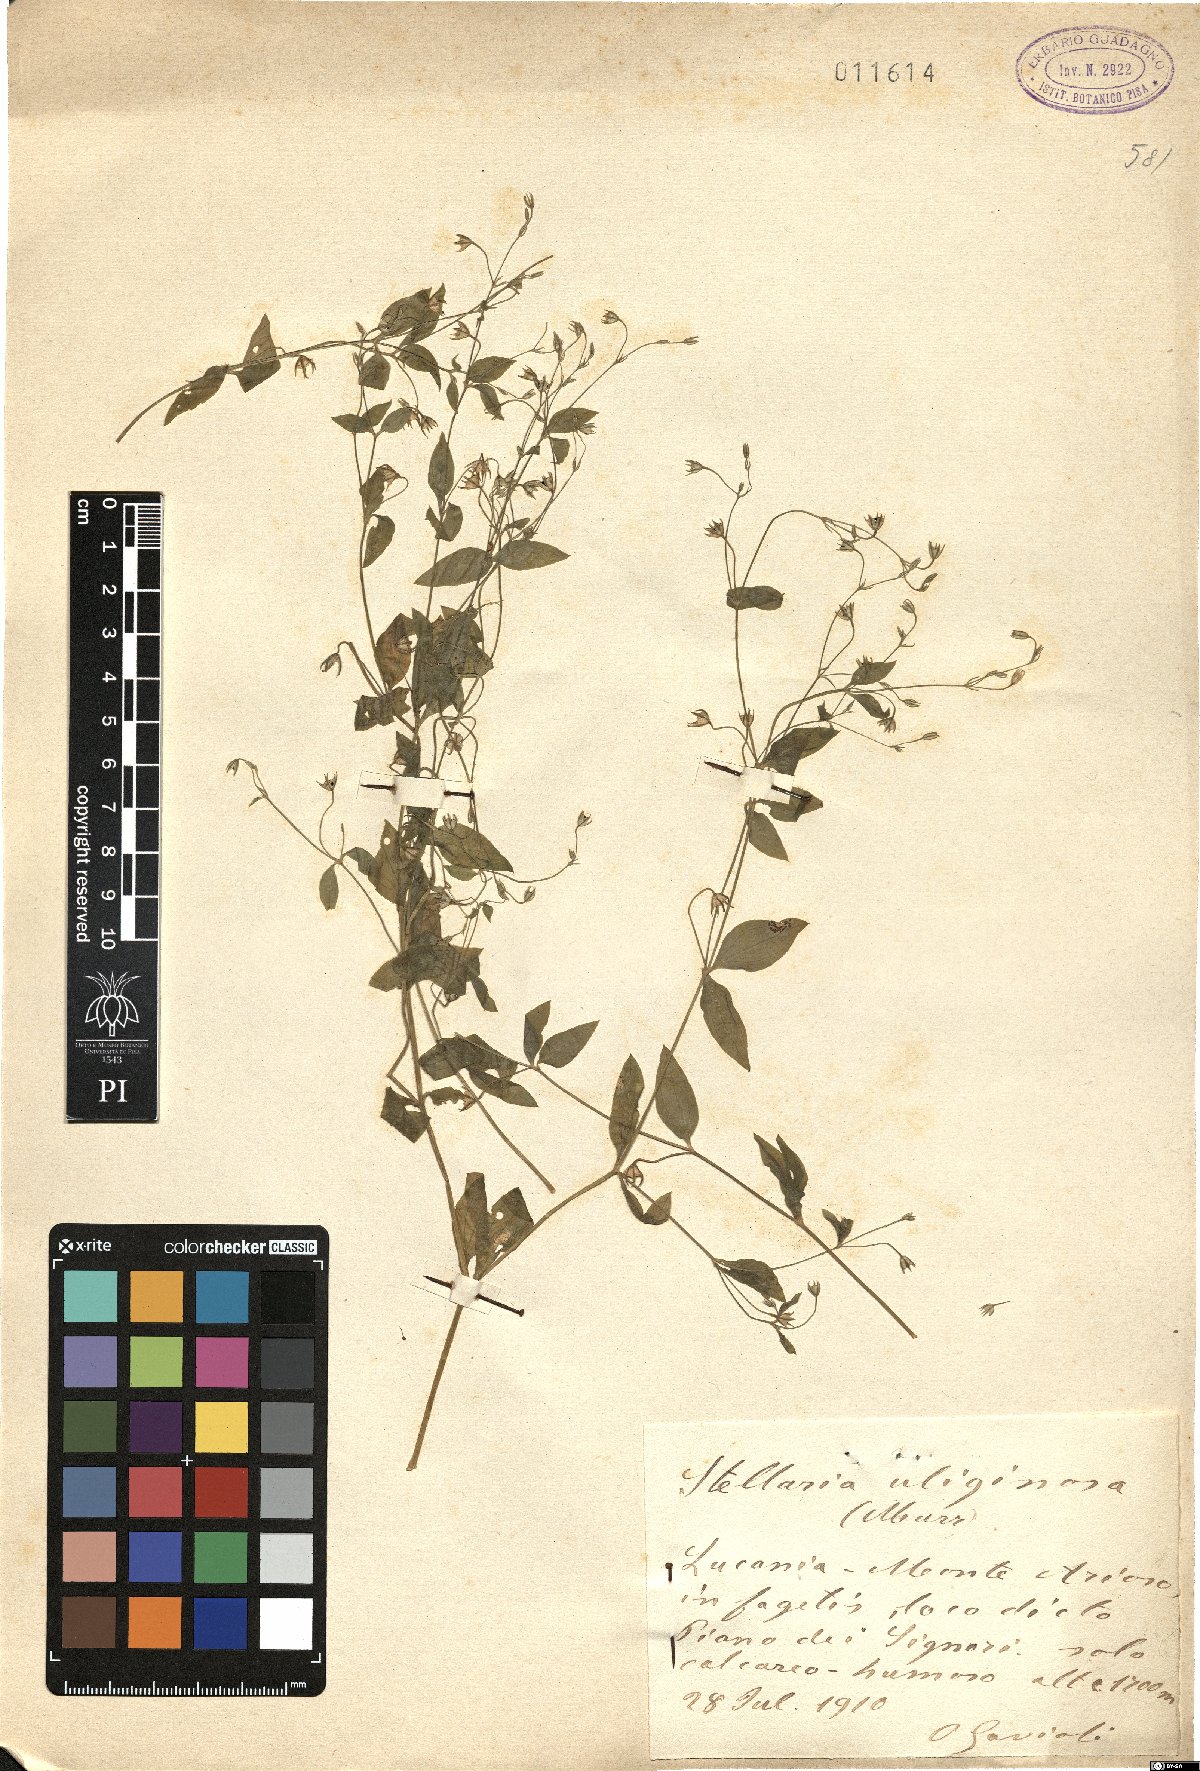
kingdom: Plantae
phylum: Tracheophyta
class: Magnoliopsida
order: Caryophyllales
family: Caryophyllaceae
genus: Stellaria
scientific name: Stellaria alsine
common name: Bog stitchwort
